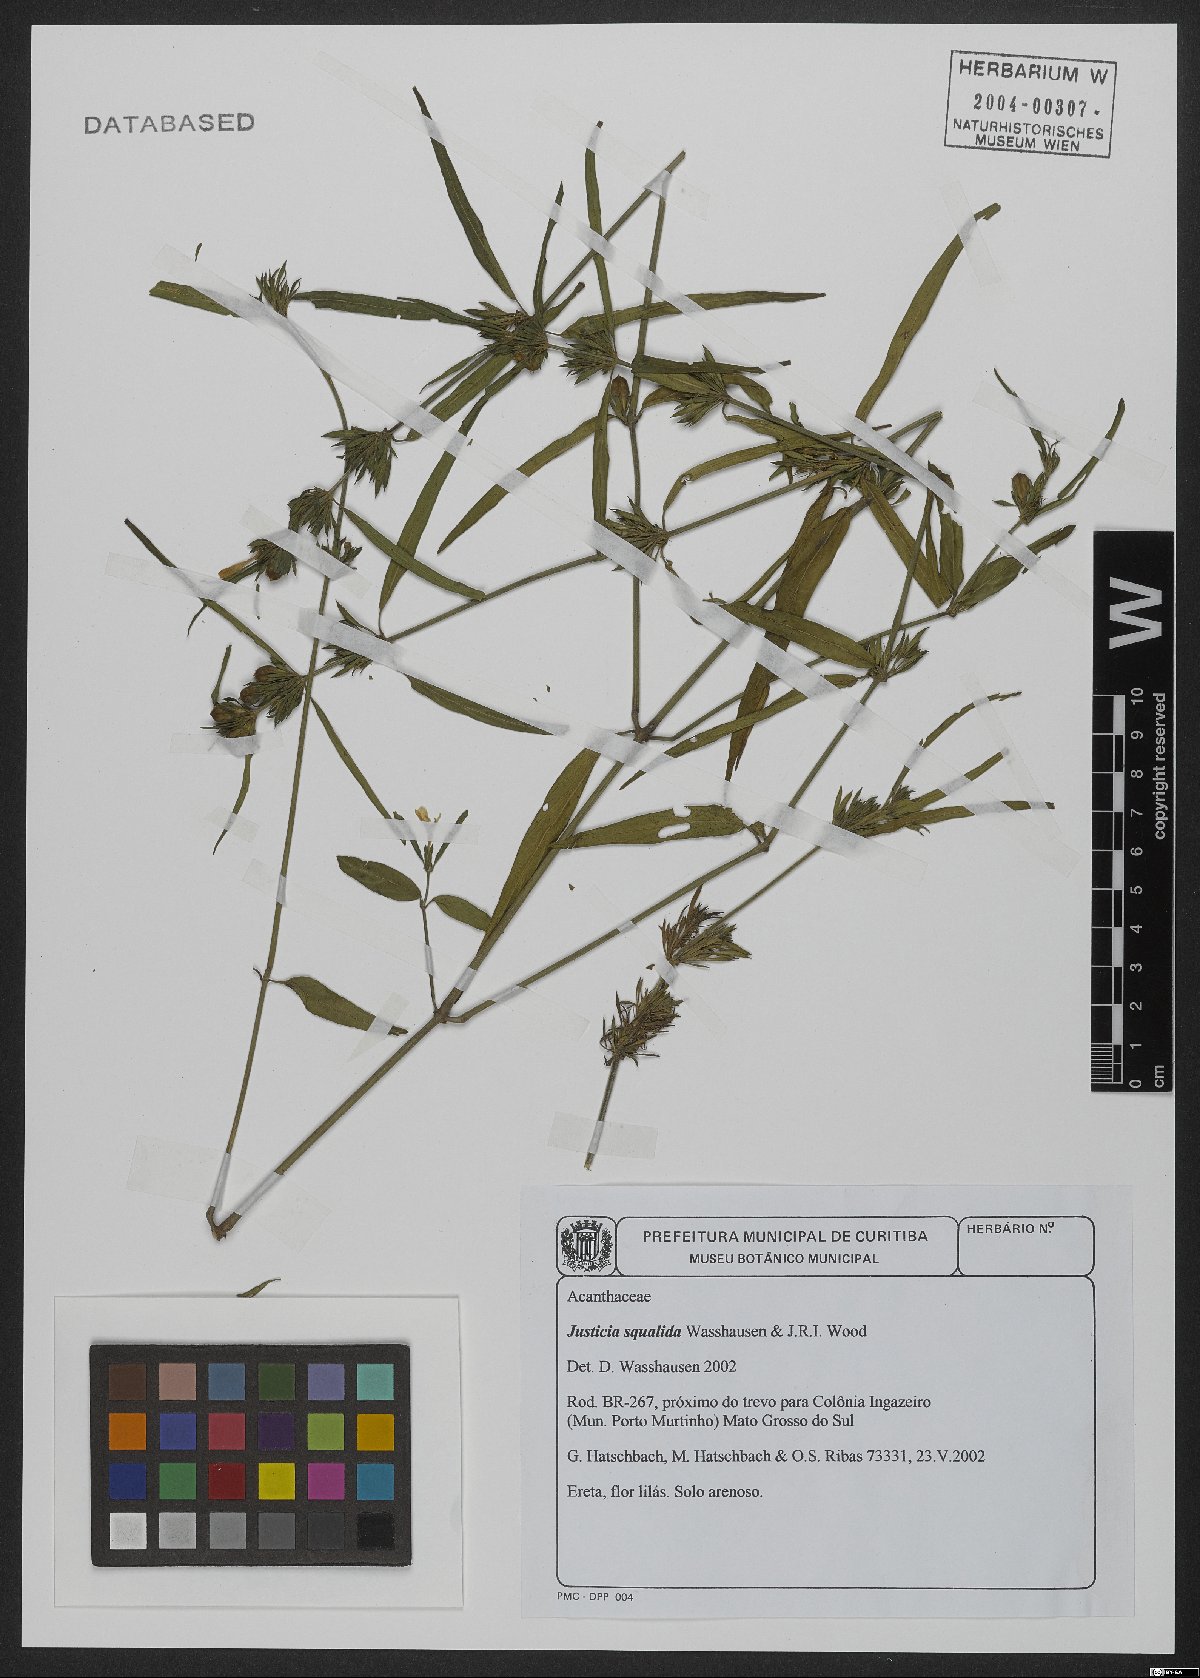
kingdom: Plantae
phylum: Tracheophyta
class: Magnoliopsida
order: Lamiales
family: Acanthaceae
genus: Justicia
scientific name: Justicia dumetorum
